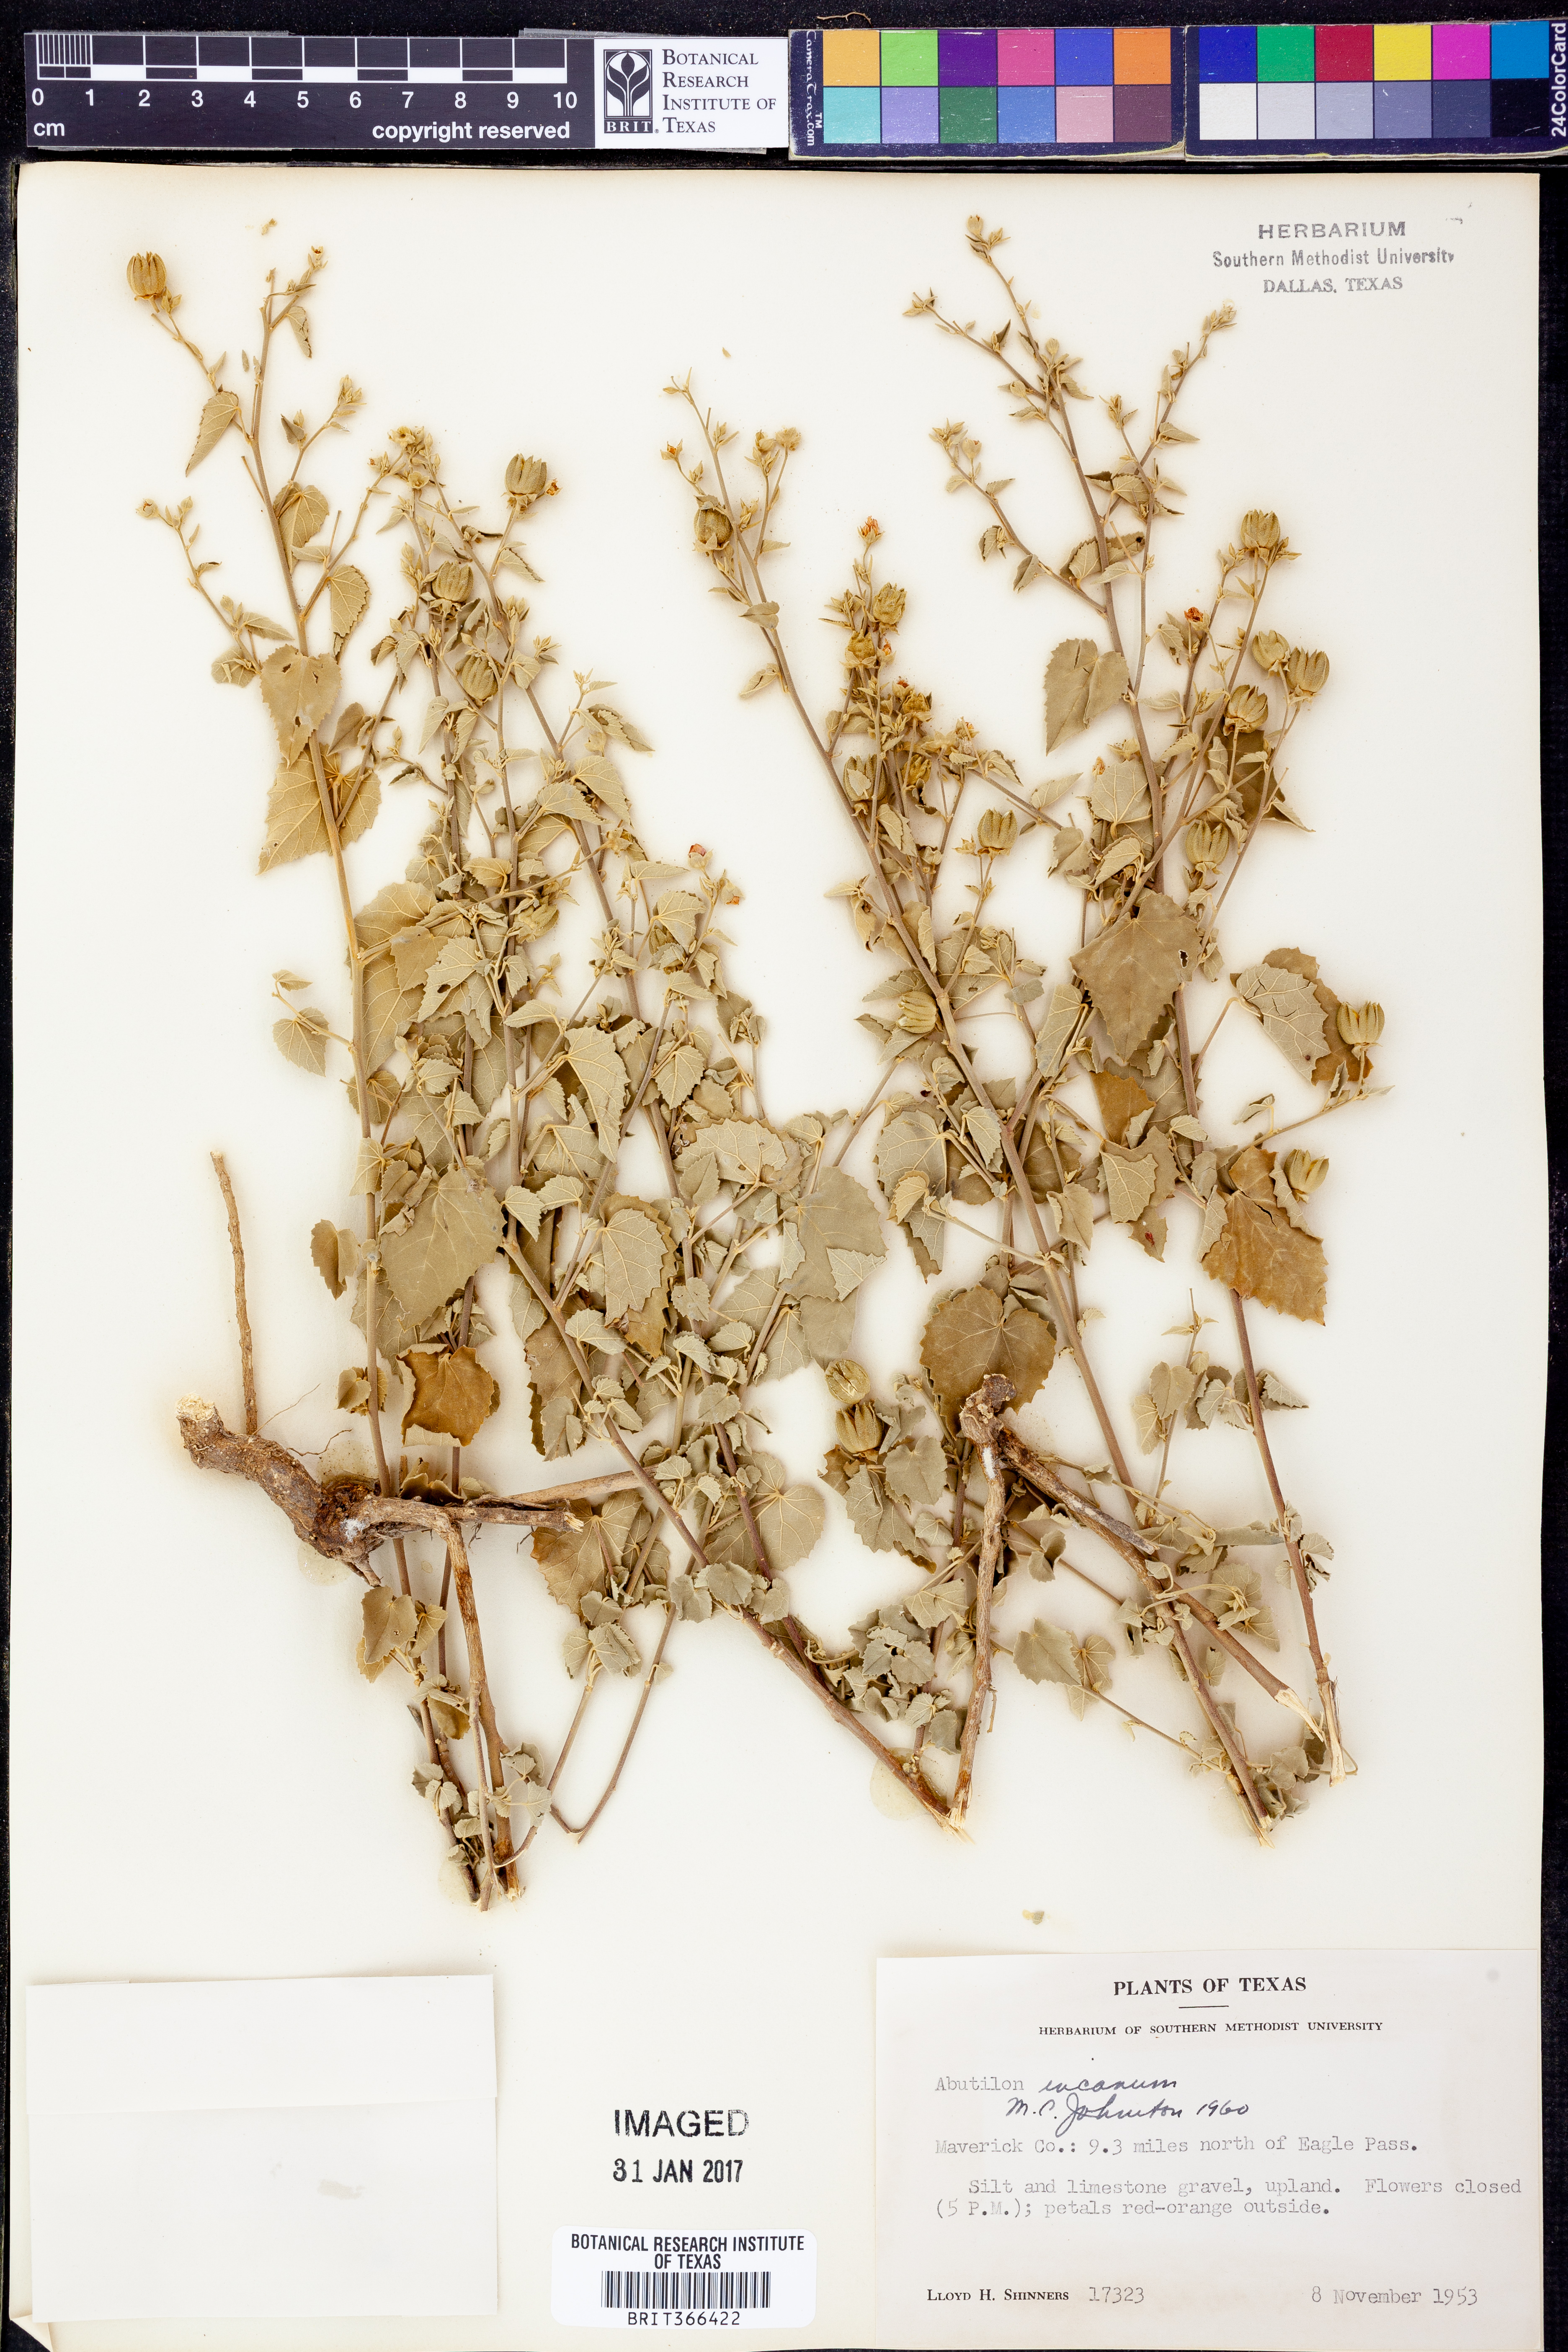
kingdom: Plantae
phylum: Tracheophyta
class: Magnoliopsida
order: Malvales
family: Malvaceae
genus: Abutilon
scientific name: Abutilon incanum
